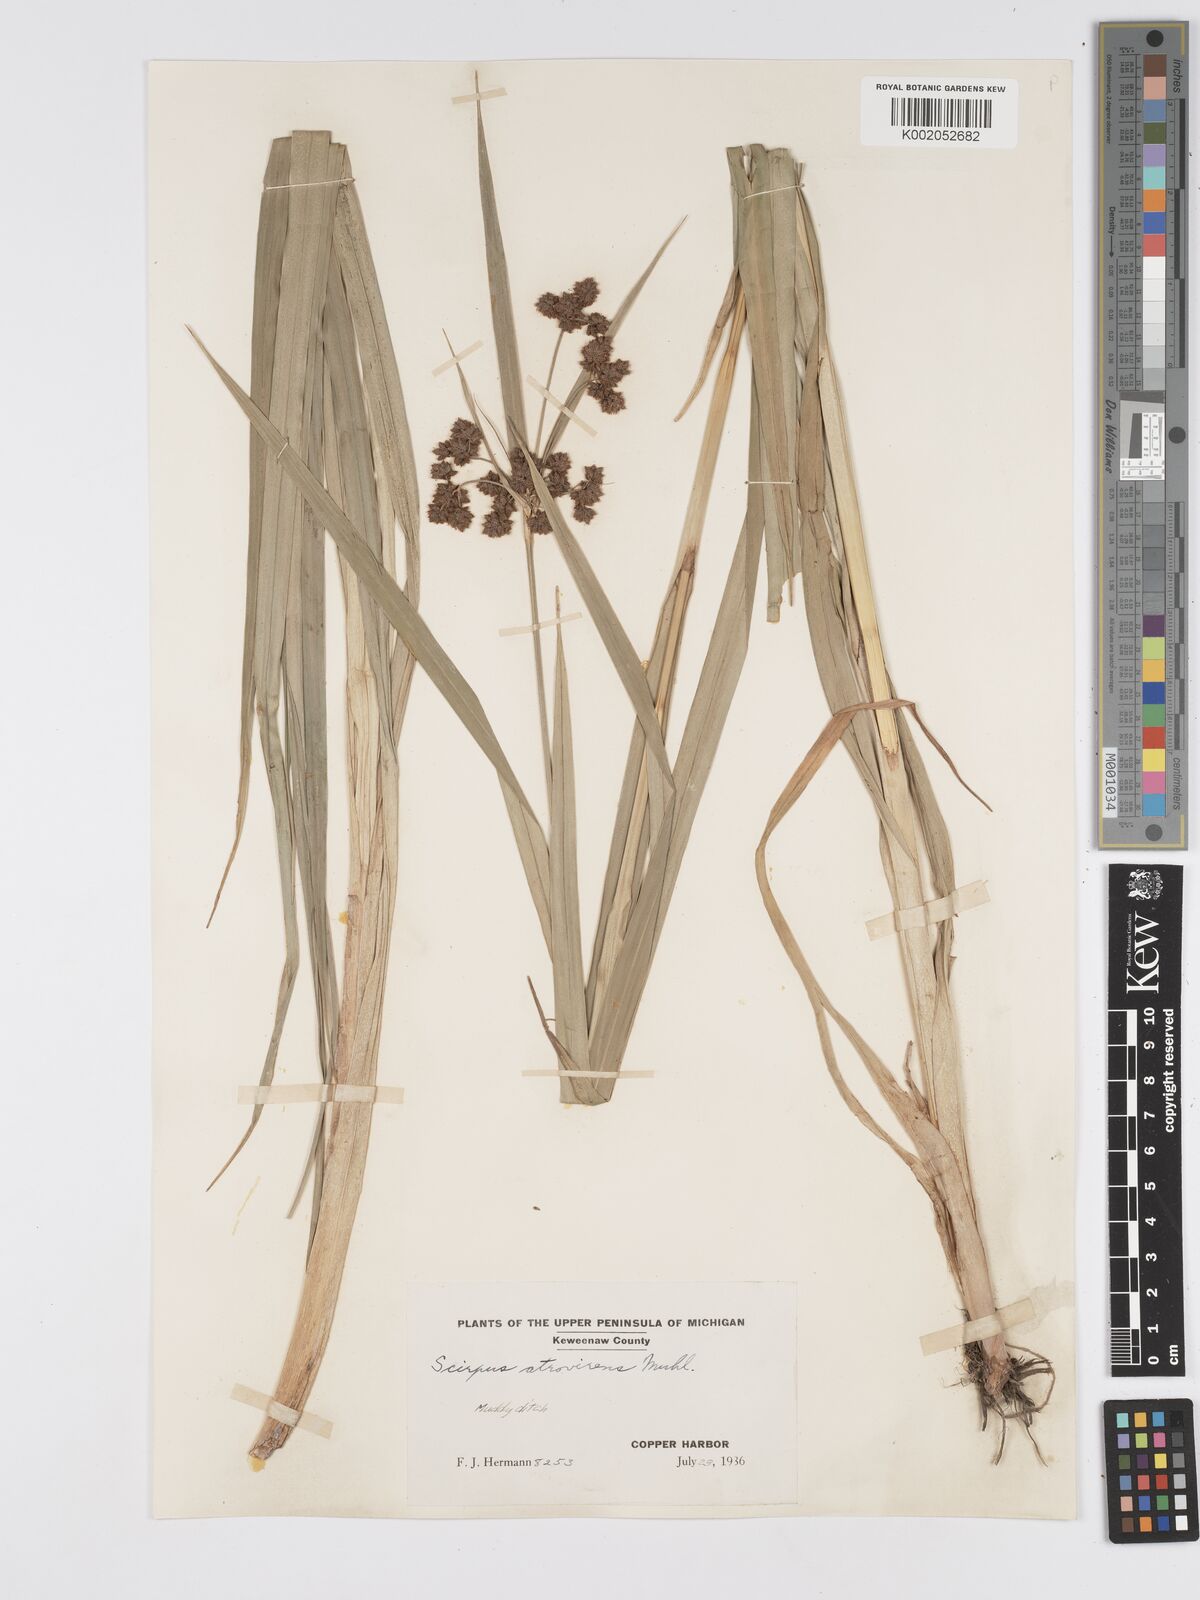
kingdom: Plantae
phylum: Tracheophyta
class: Liliopsida
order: Poales
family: Cyperaceae
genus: Scirpus
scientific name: Scirpus atrovirens
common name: Black bulrush
